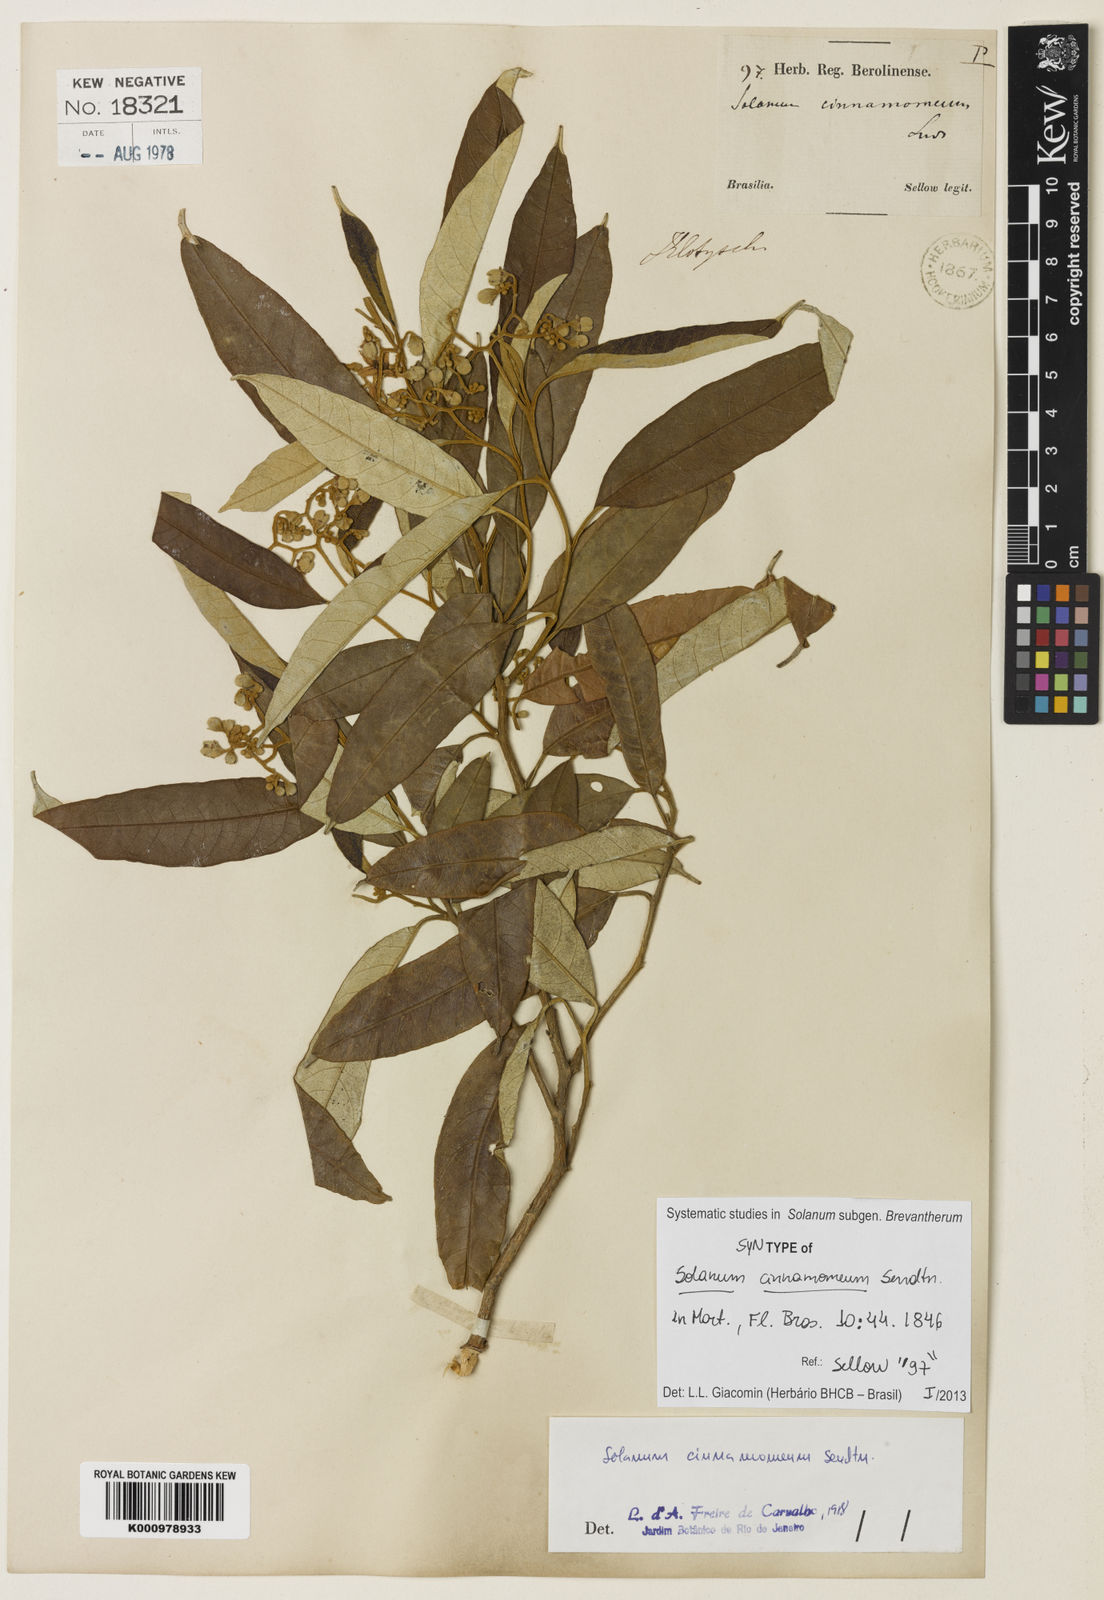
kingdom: Plantae
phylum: Tracheophyta
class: Magnoliopsida
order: Solanales
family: Solanaceae
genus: Solanum
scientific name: Solanum cinnamomeum
